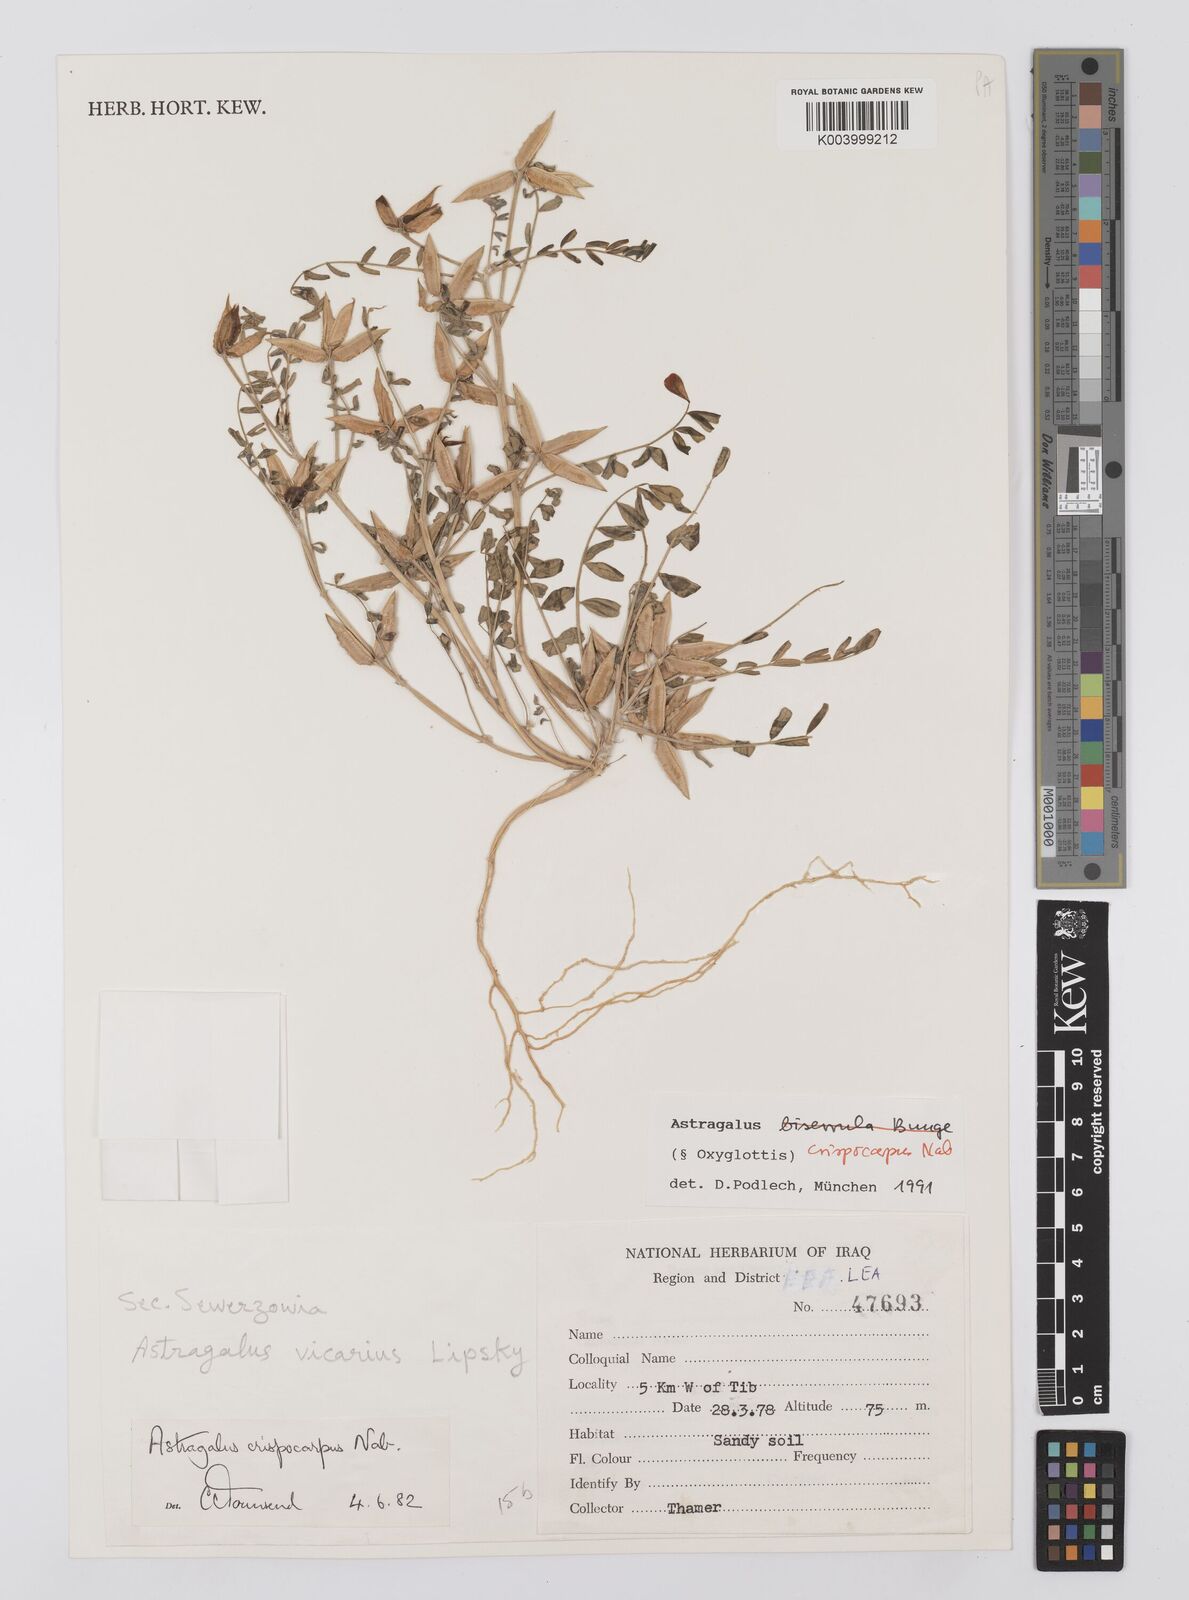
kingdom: Plantae
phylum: Tracheophyta
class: Magnoliopsida
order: Fabales
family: Fabaceae
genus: Astragalus
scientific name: Astragalus crispocarpus
